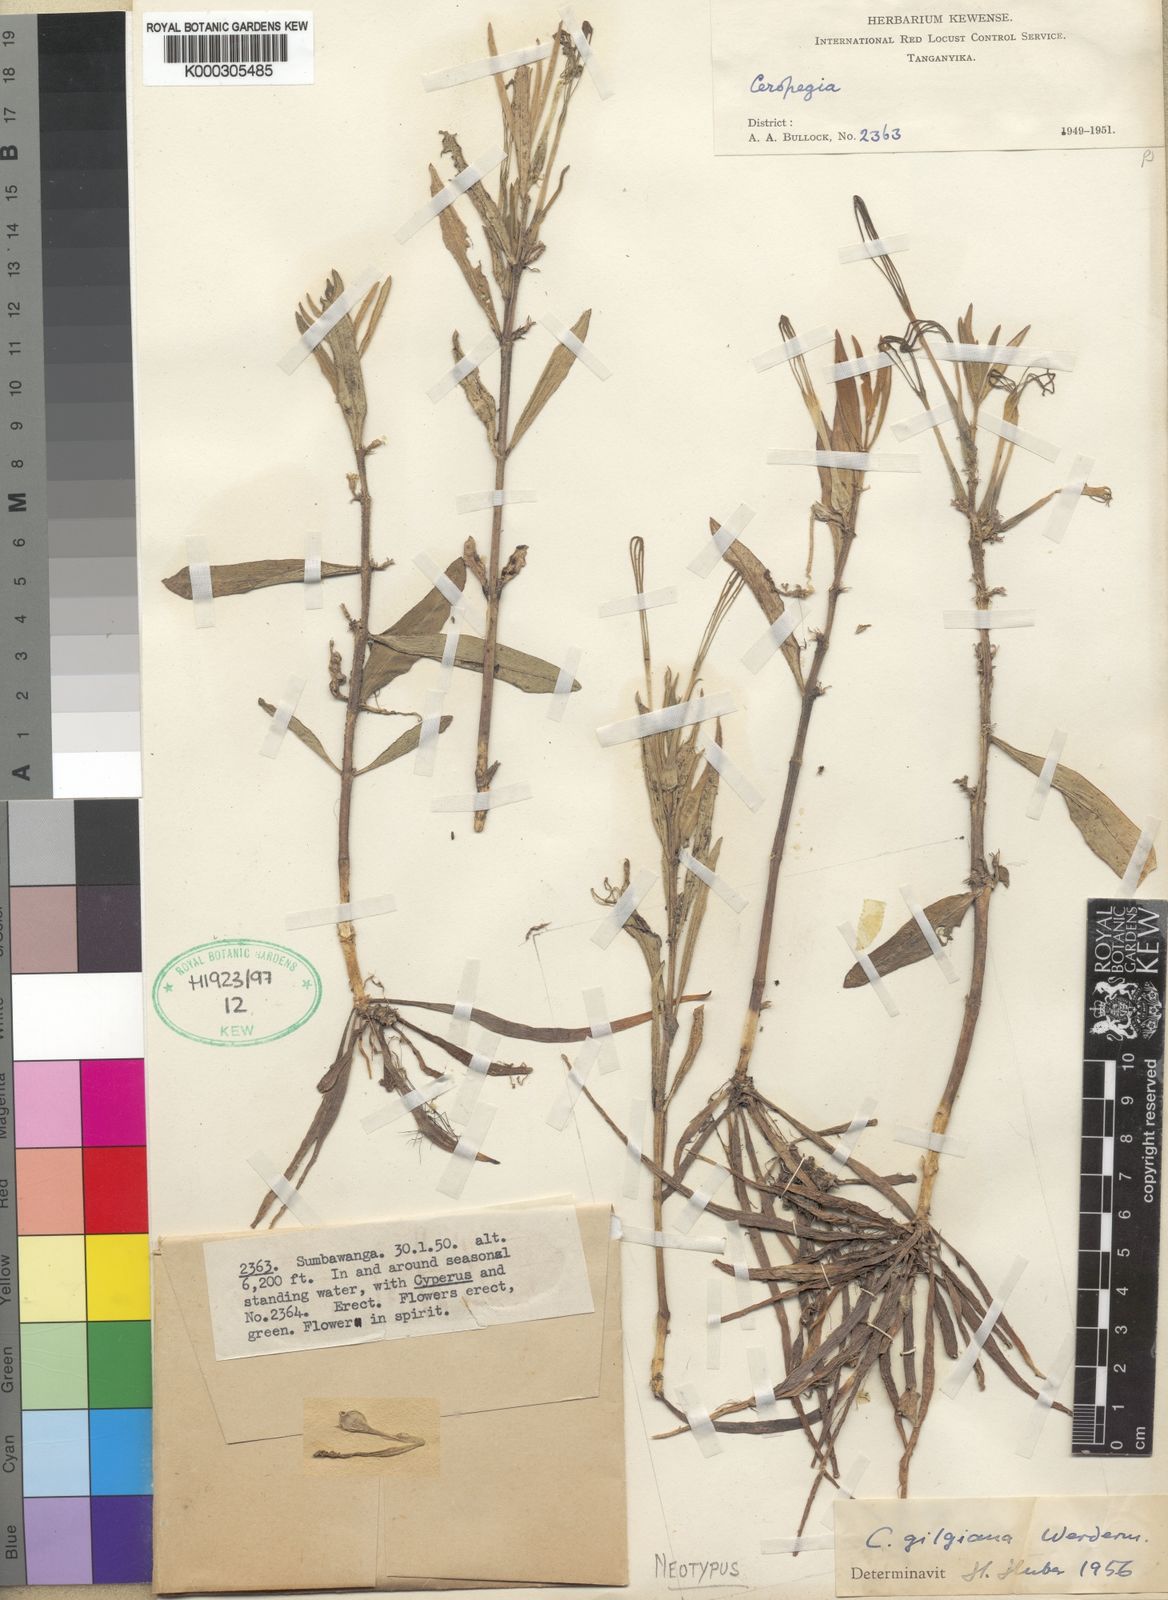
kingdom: Plantae
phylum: Tracheophyta
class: Magnoliopsida
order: Gentianales
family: Apocynaceae
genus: Ceropegia
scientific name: Ceropegia gilgiana
